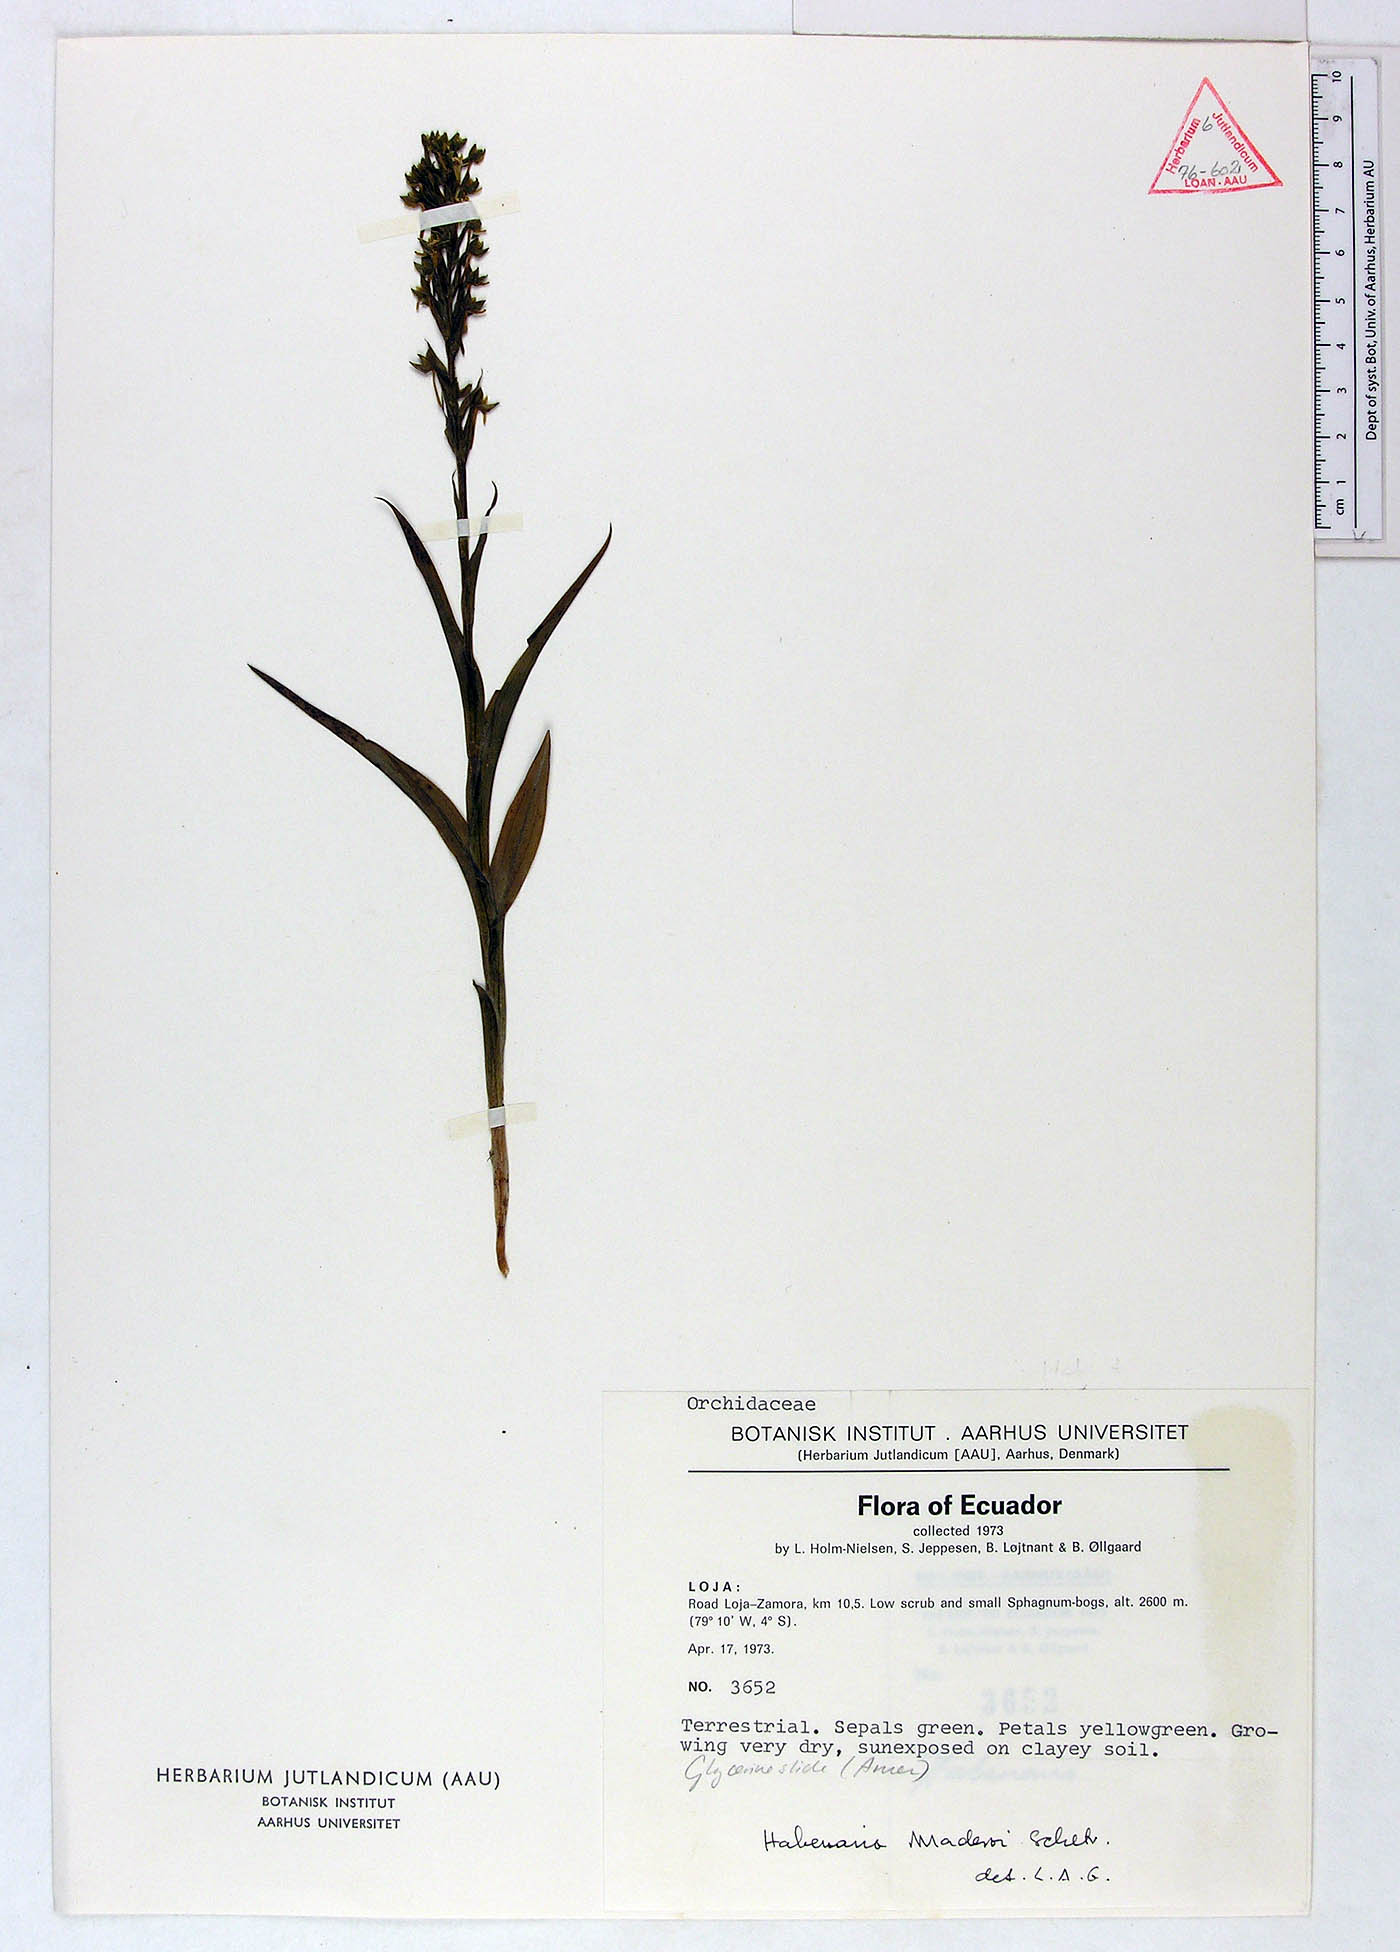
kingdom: Plantae
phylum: Tracheophyta
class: Liliopsida
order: Asparagales
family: Orchidaceae
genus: Habenaria
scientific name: Habenaria gollmeri
